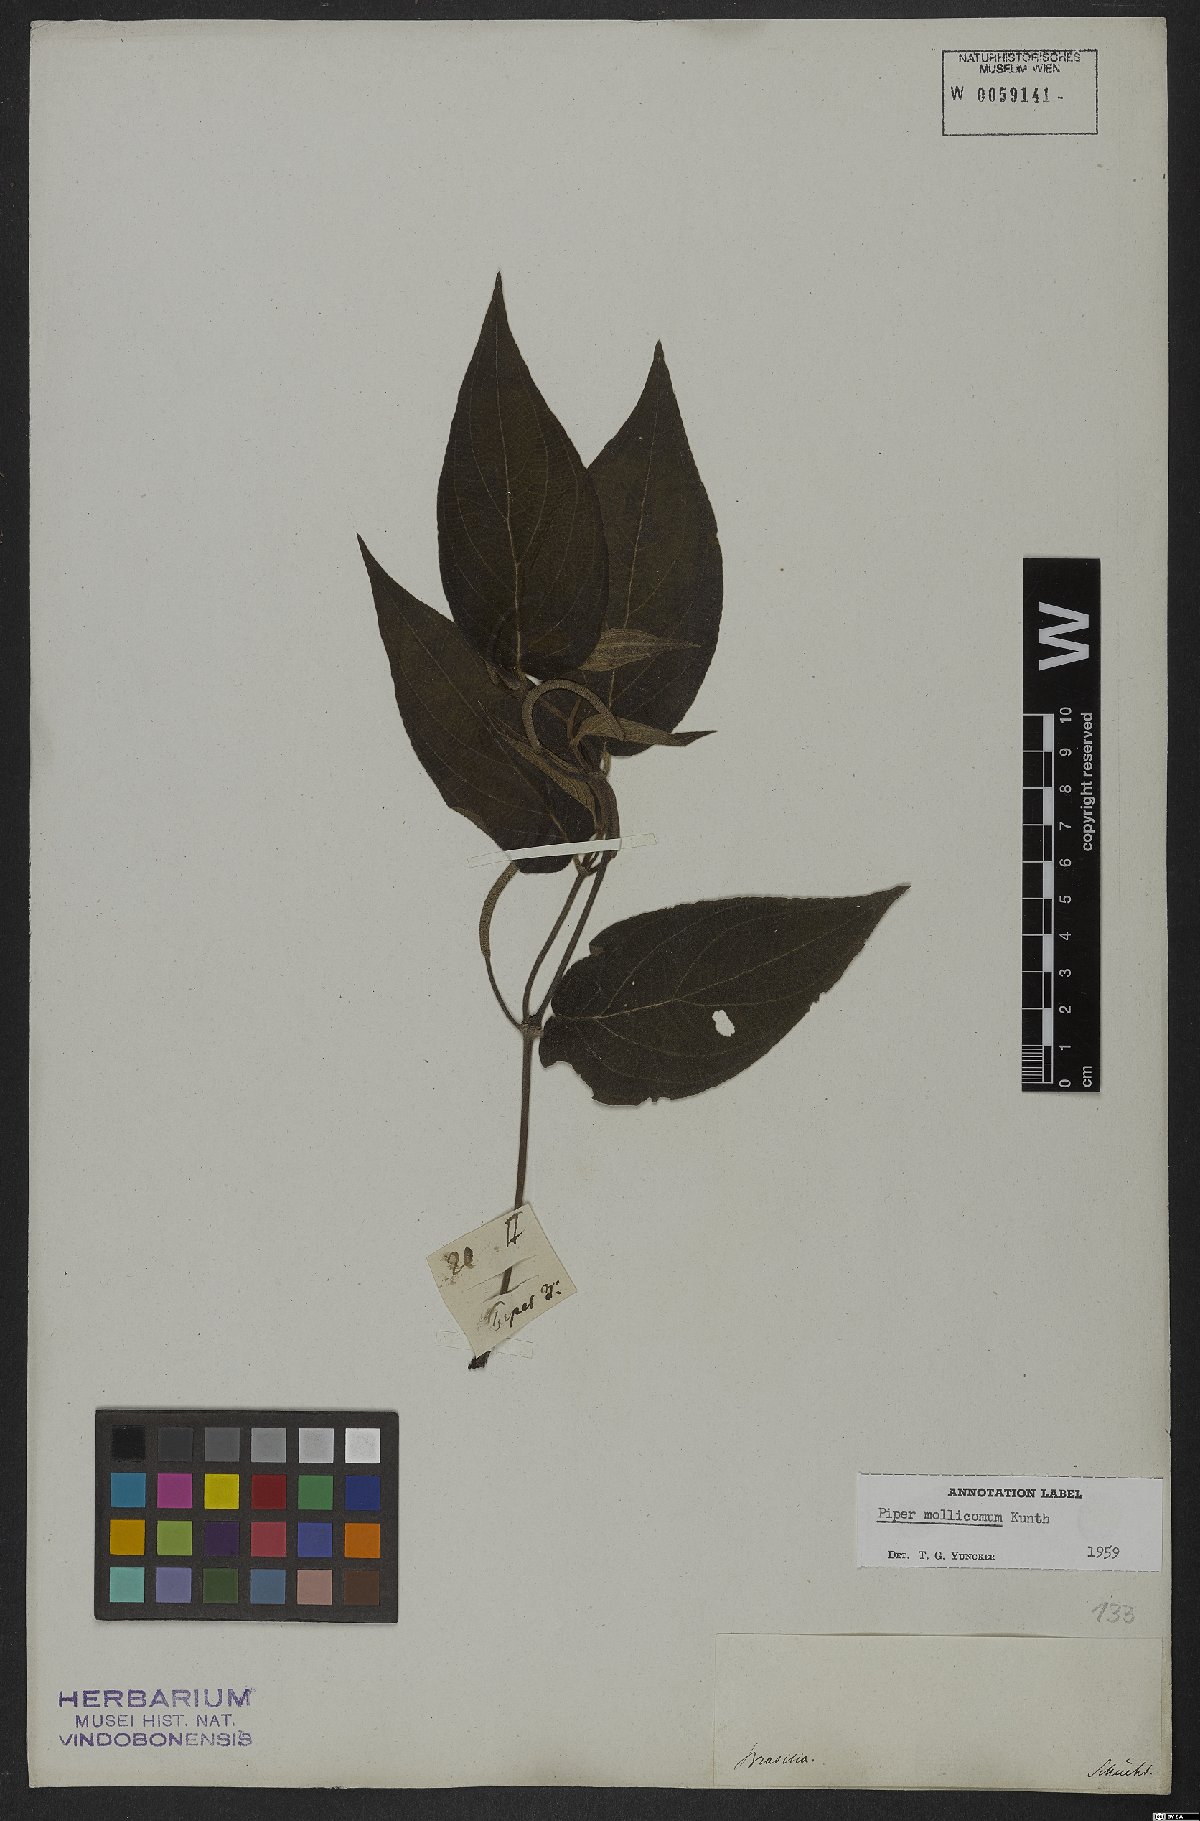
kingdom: Plantae
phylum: Tracheophyta
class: Magnoliopsida
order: Piperales
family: Piperaceae
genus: Piper
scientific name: Piper mollicomum
